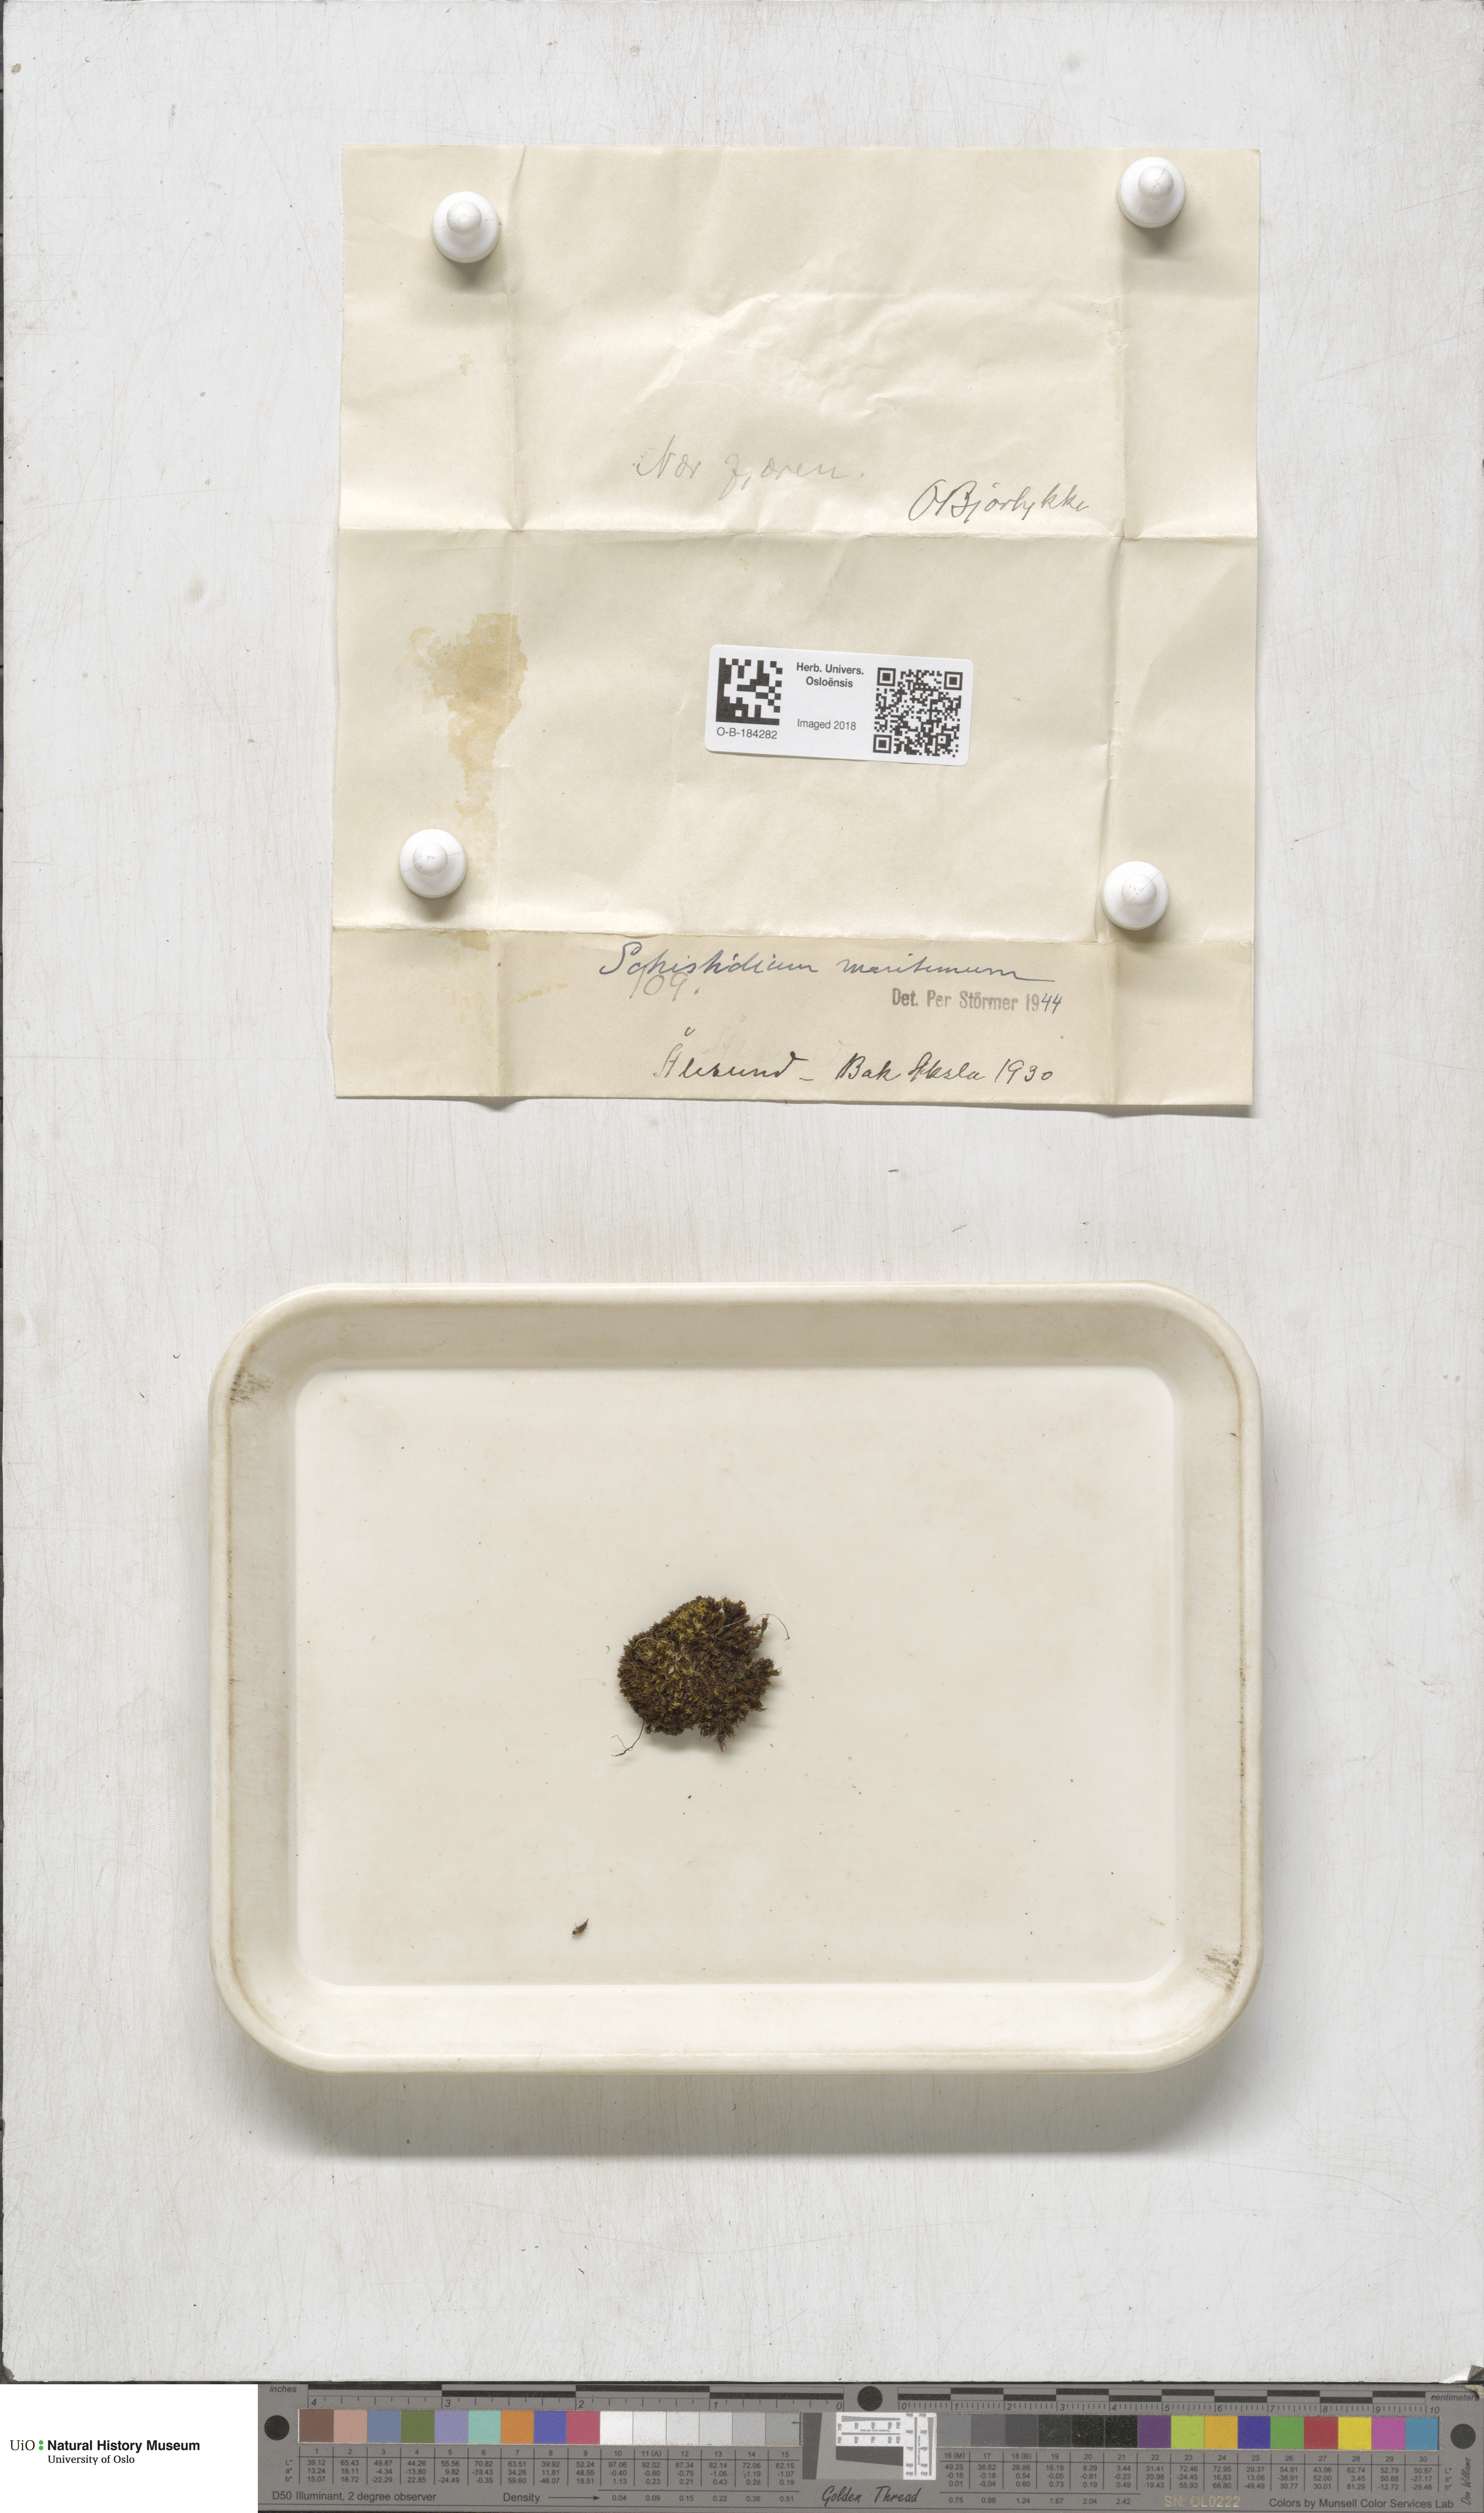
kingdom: Plantae
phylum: Bryophyta
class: Bryopsida
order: Grimmiales
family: Grimmiaceae
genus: Schistidium
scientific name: Schistidium maritimum
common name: Seaside bloom moss
